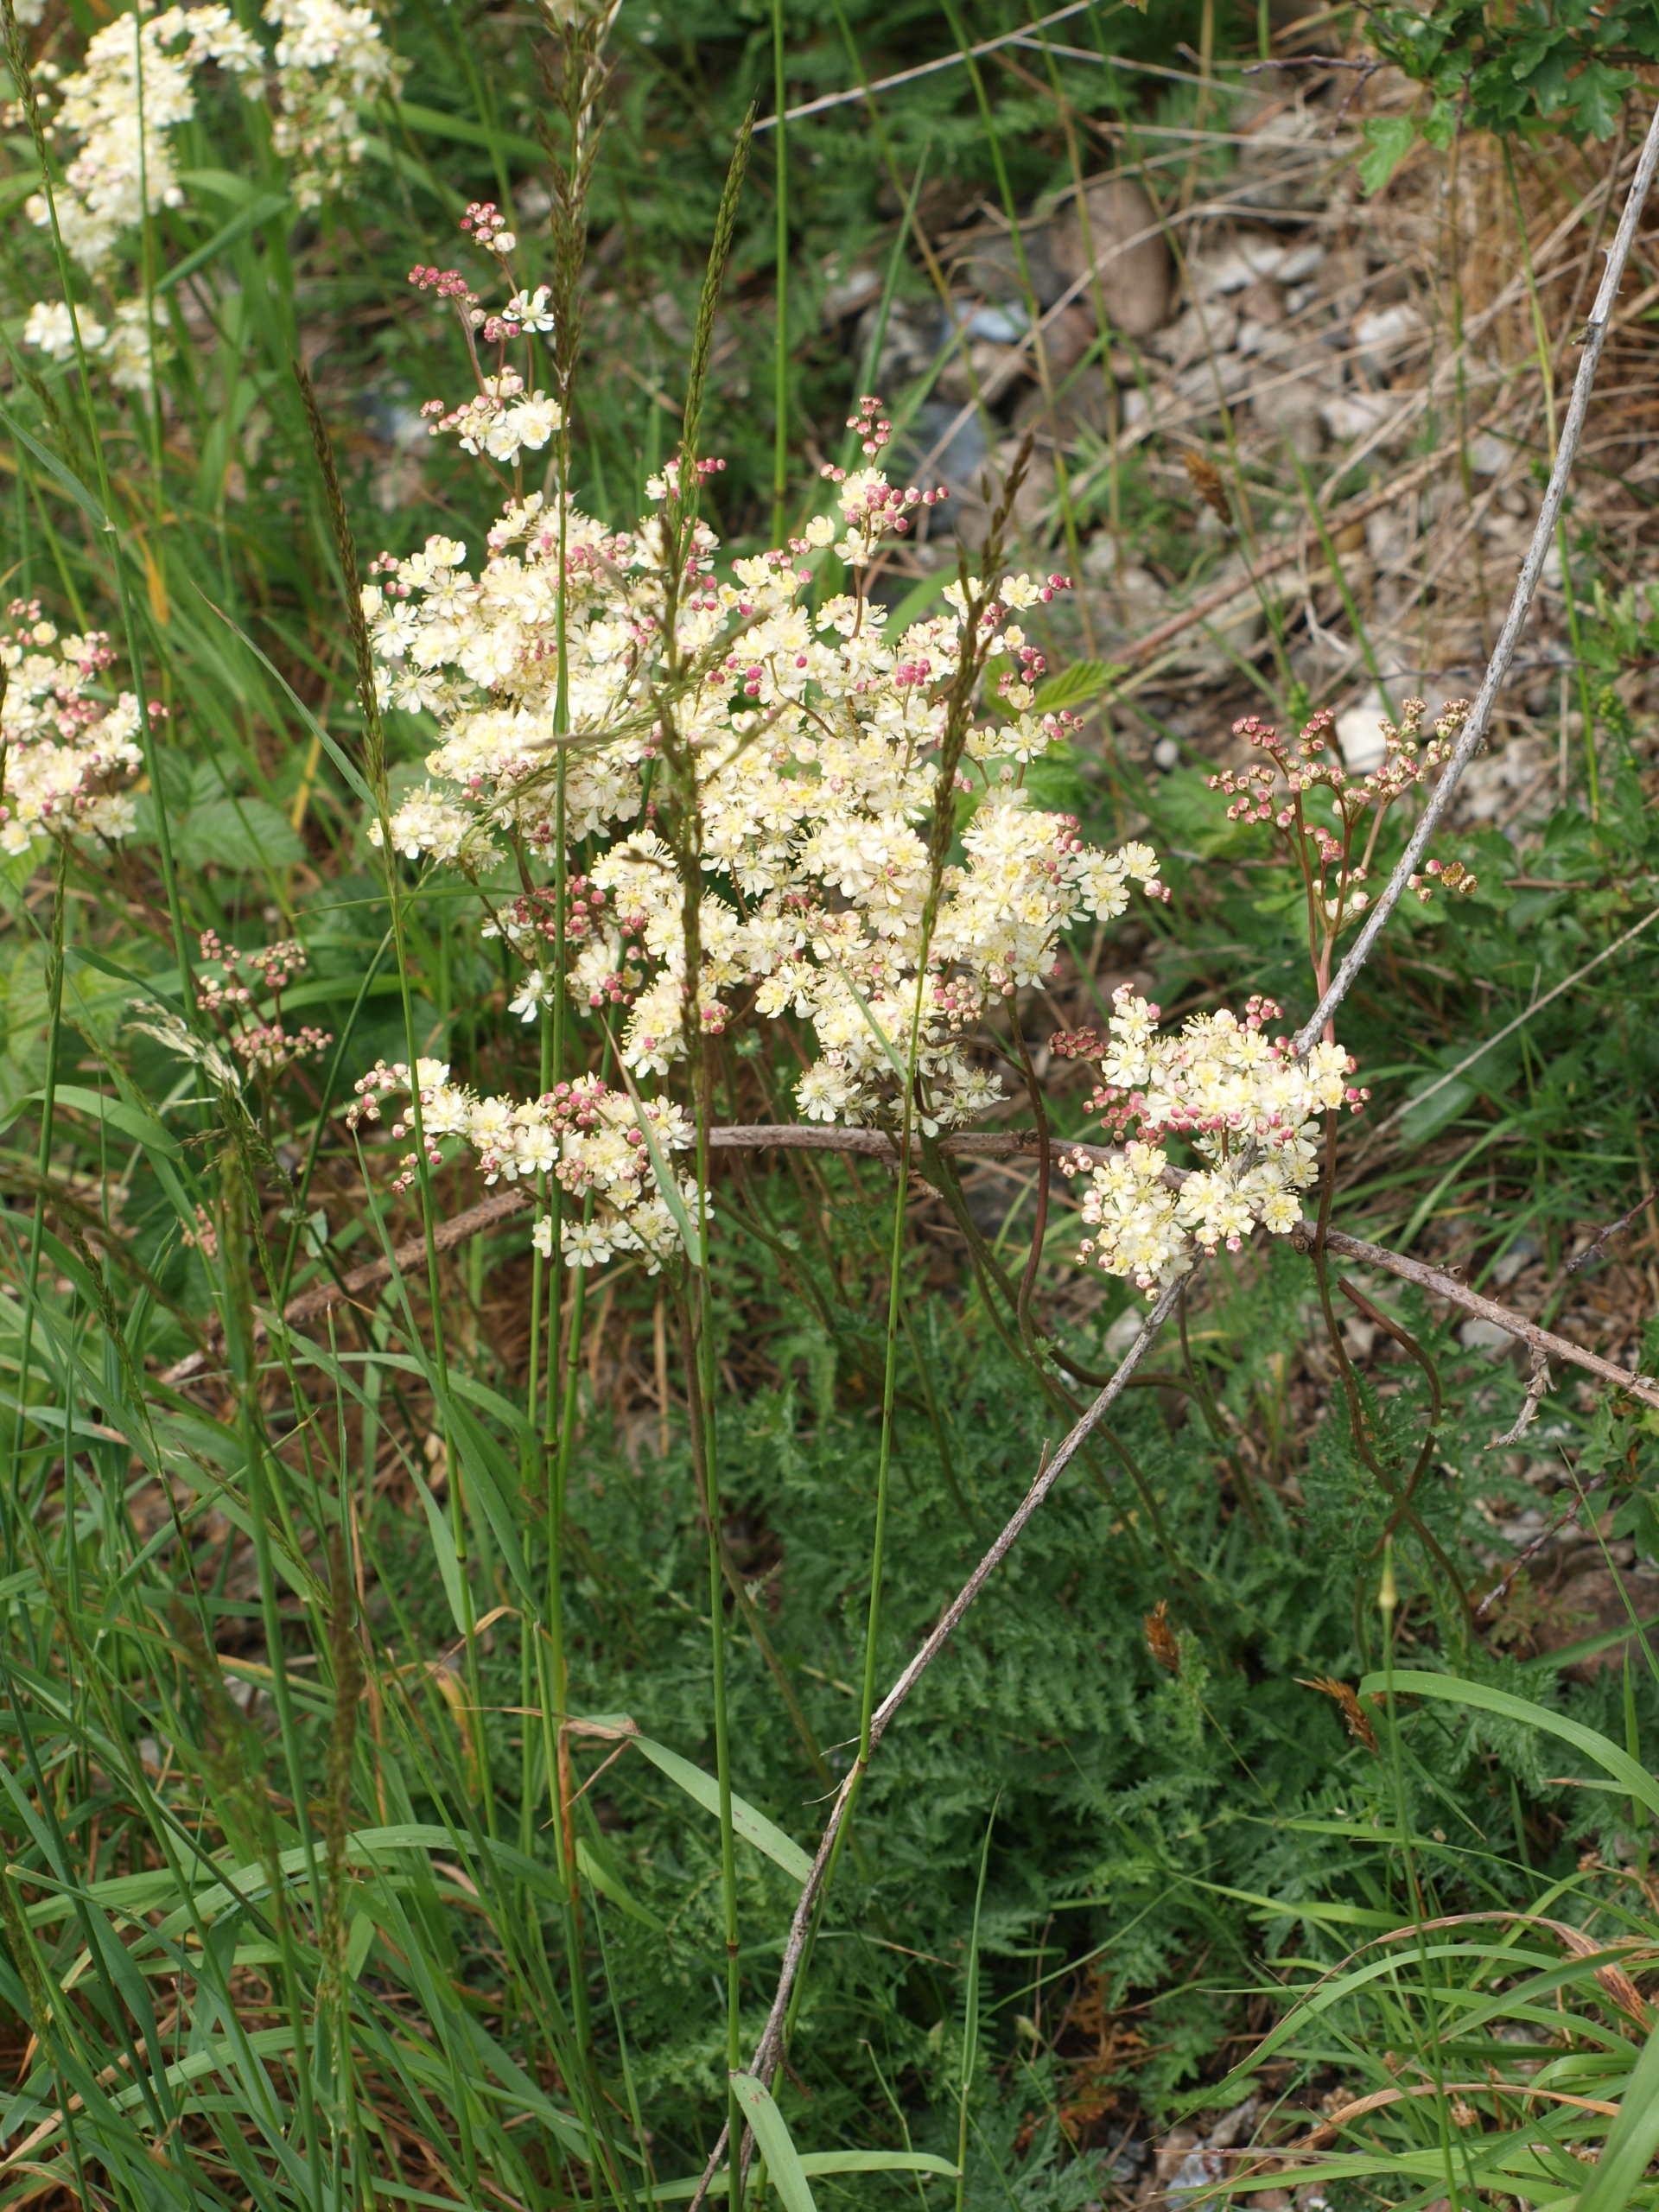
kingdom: Plantae
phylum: Tracheophyta
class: Magnoliopsida
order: Rosales
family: Rosaceae
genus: Filipendula
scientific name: Filipendula vulgaris
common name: Knoldet mjødurt
